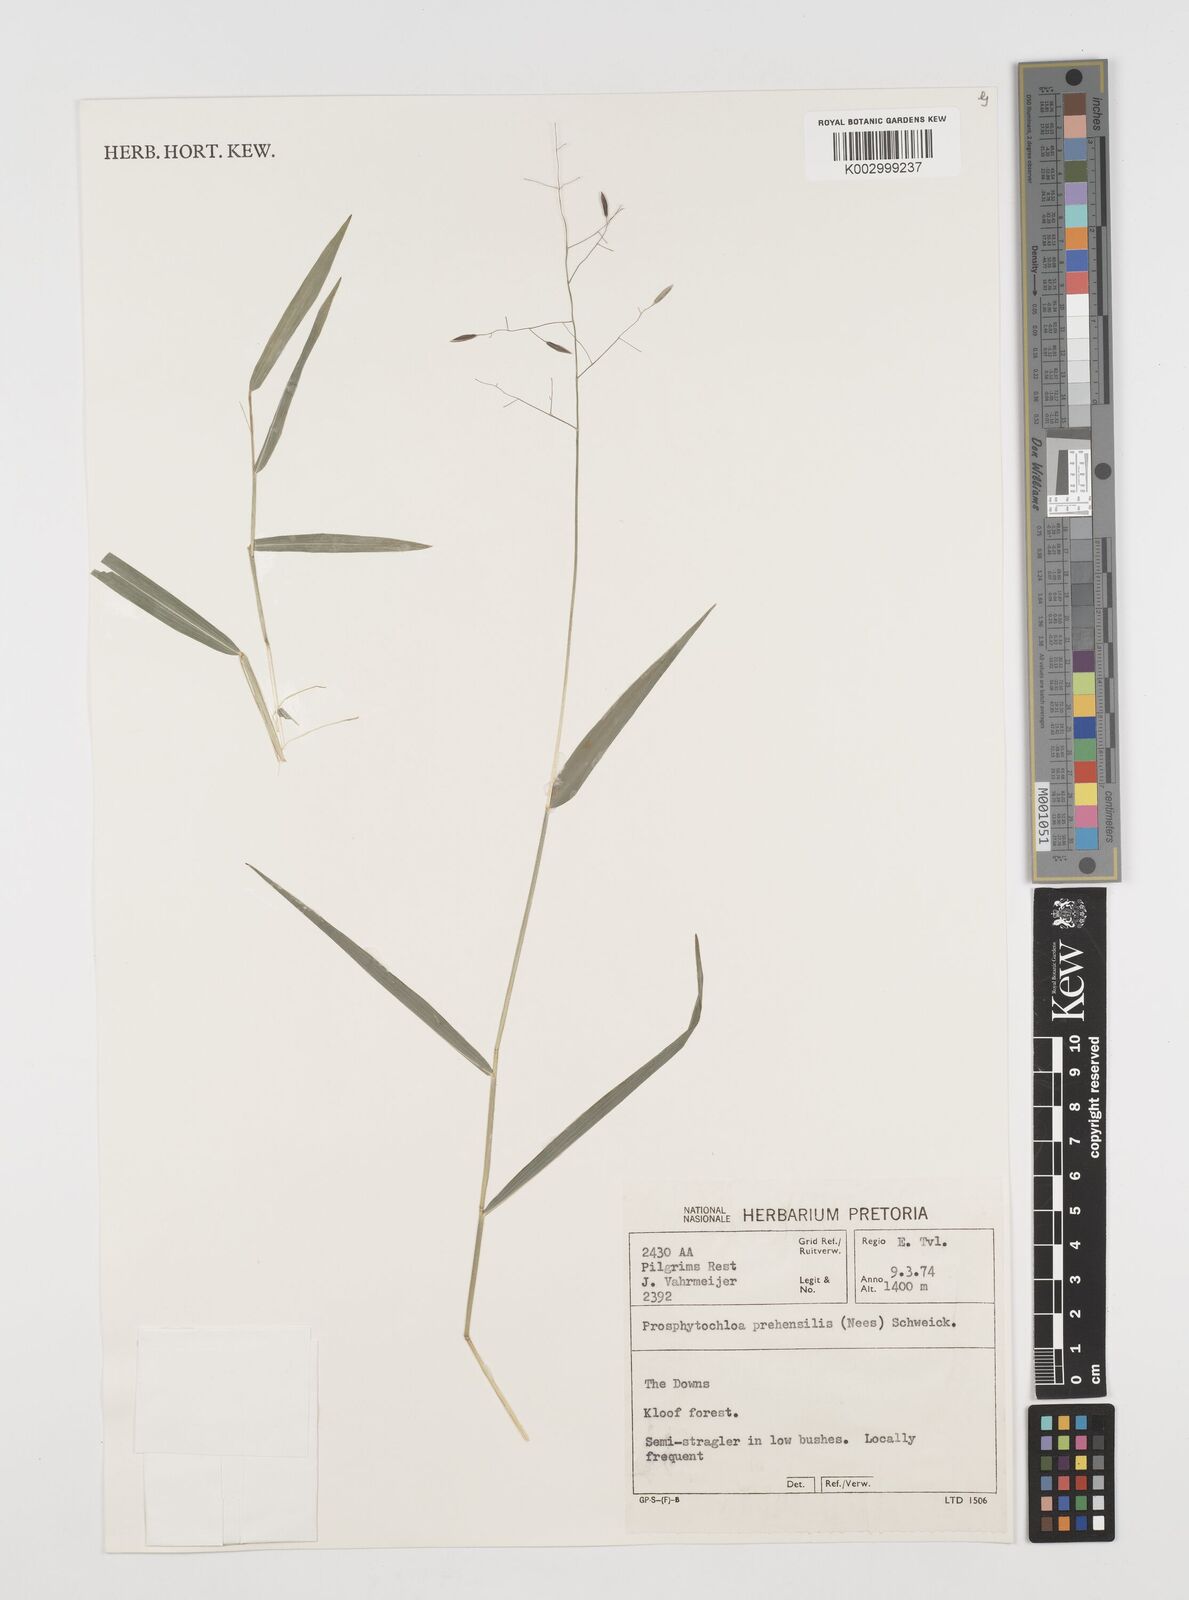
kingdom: Plantae
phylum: Tracheophyta
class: Liliopsida
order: Poales
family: Poaceae
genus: Prosphytochloa
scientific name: Prosphytochloa prehensilis
